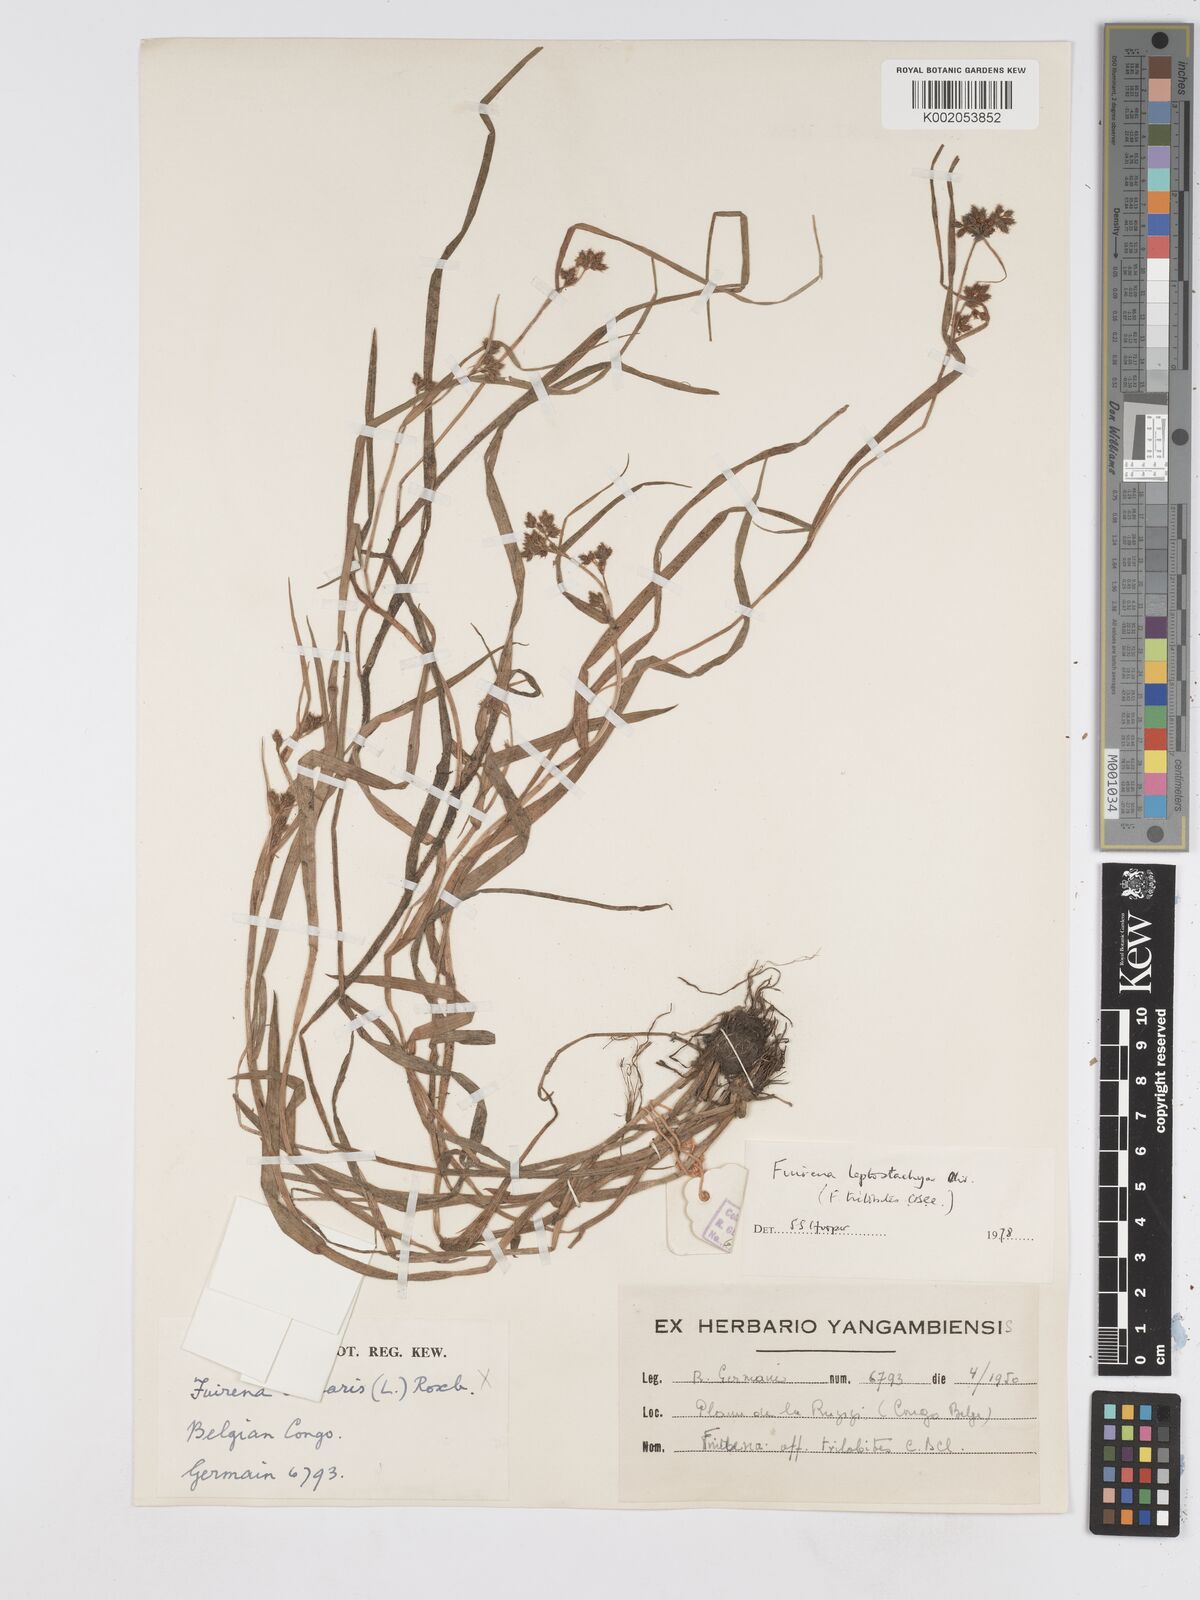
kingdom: Plantae
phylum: Tracheophyta
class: Liliopsida
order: Poales
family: Cyperaceae
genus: Fuirena
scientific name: Fuirena leptostachya
